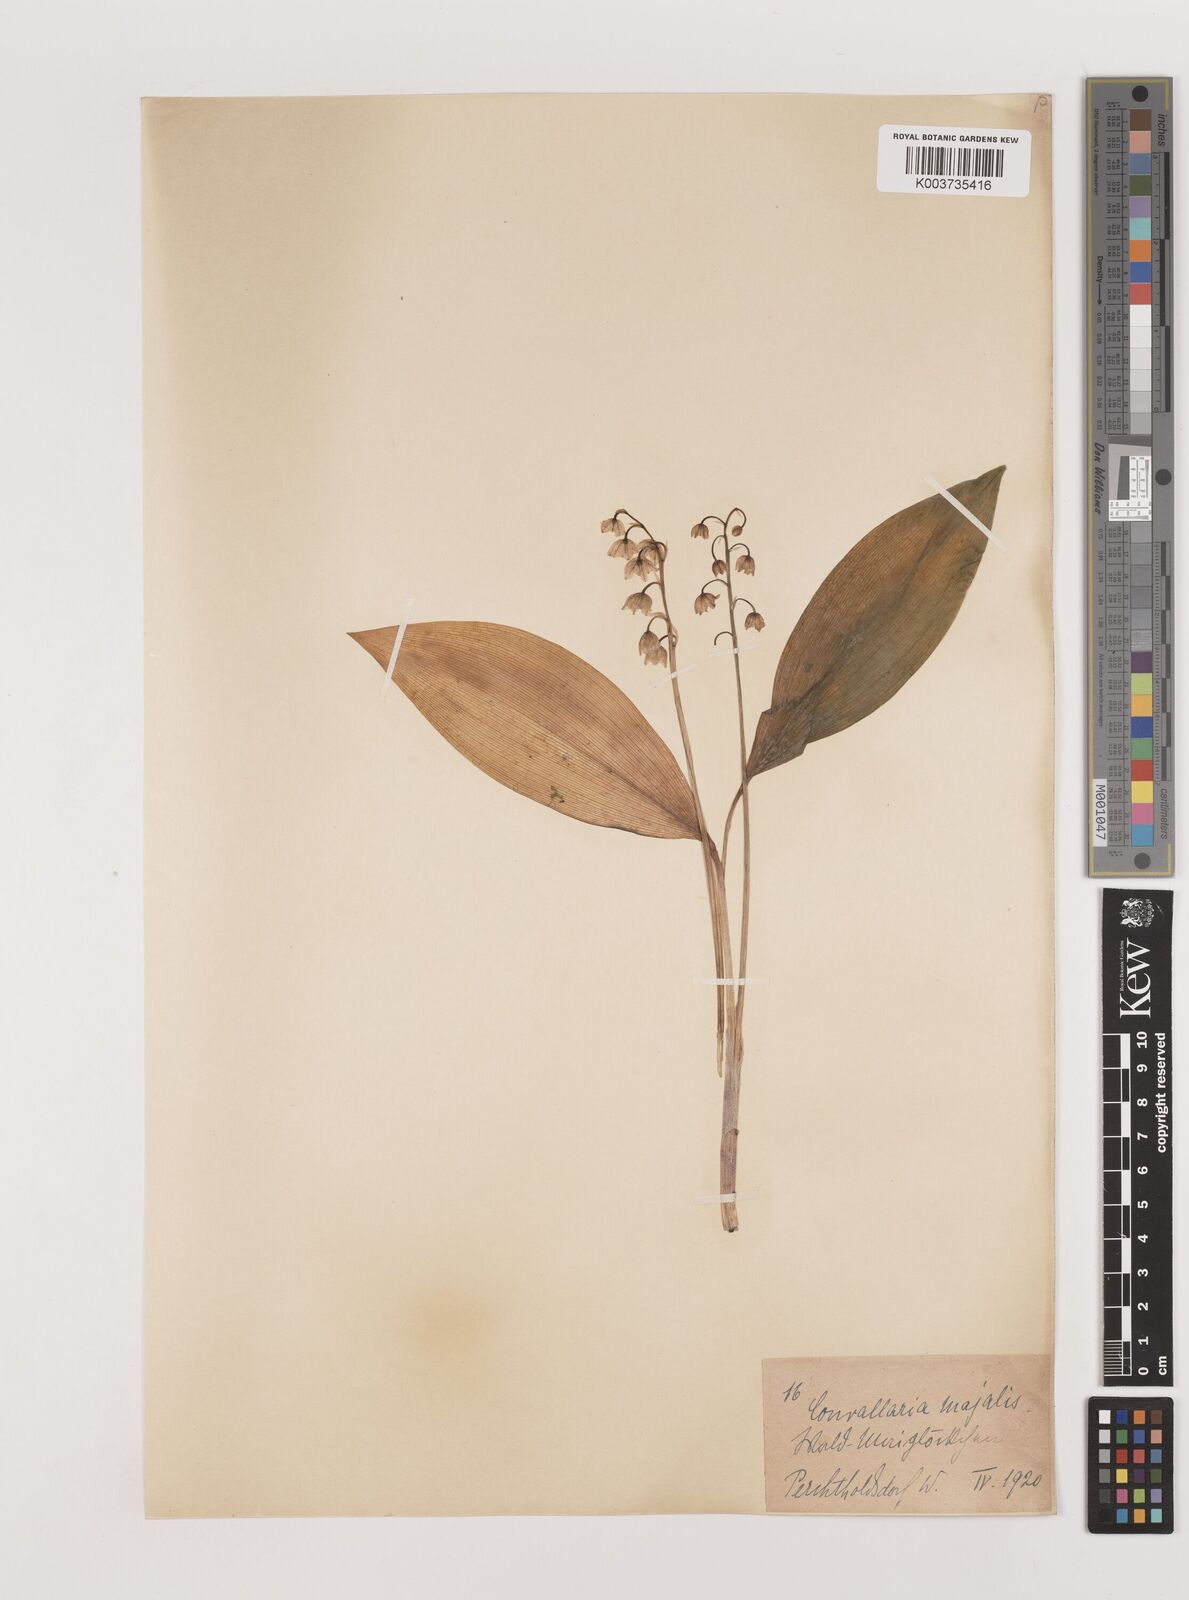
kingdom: Plantae
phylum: Tracheophyta
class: Liliopsida
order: Asparagales
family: Asparagaceae
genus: Convallaria
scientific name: Convallaria majalis
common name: Lily-of-the-valley
